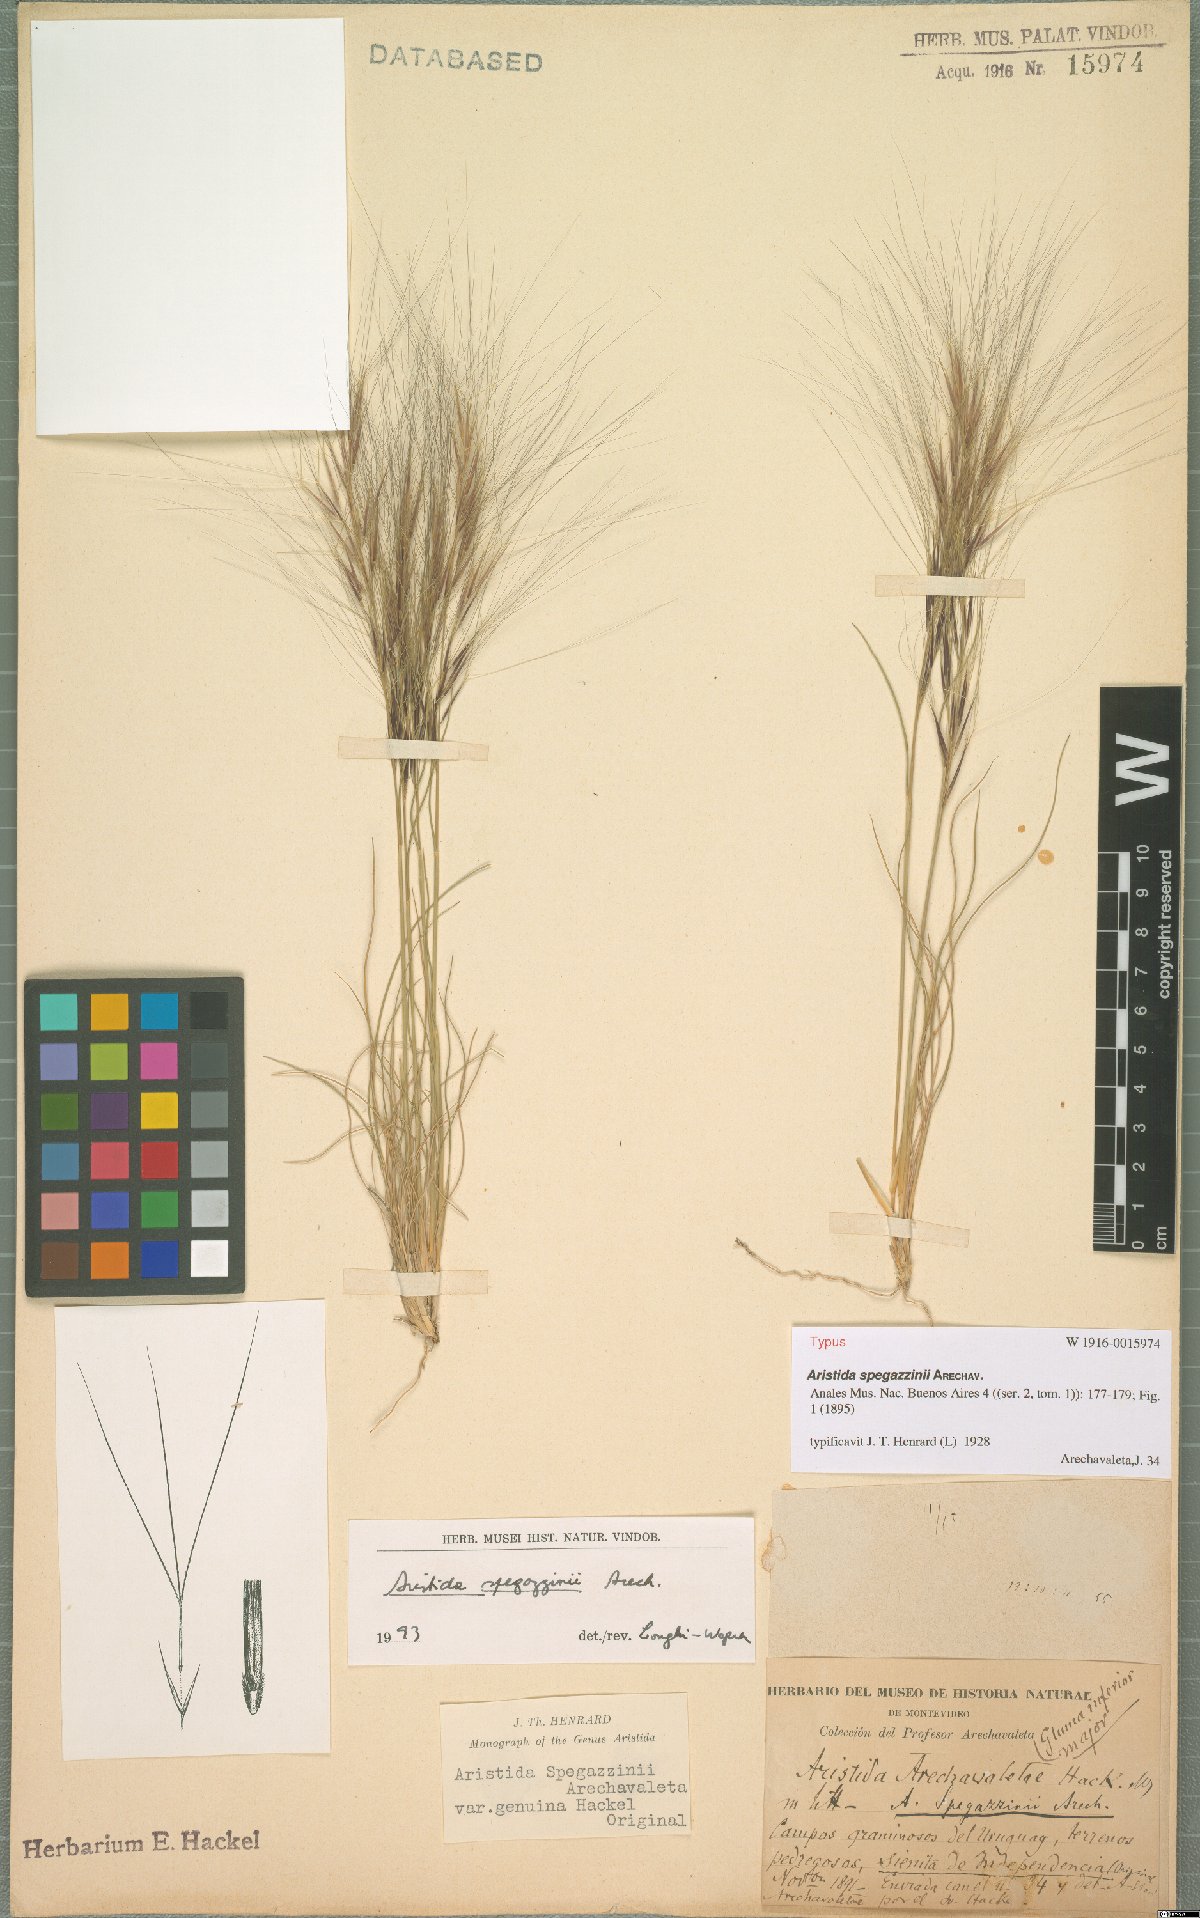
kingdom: Plantae
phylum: Tracheophyta
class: Liliopsida
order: Poales
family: Poaceae
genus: Aristida
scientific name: Aristida spegazzinii
